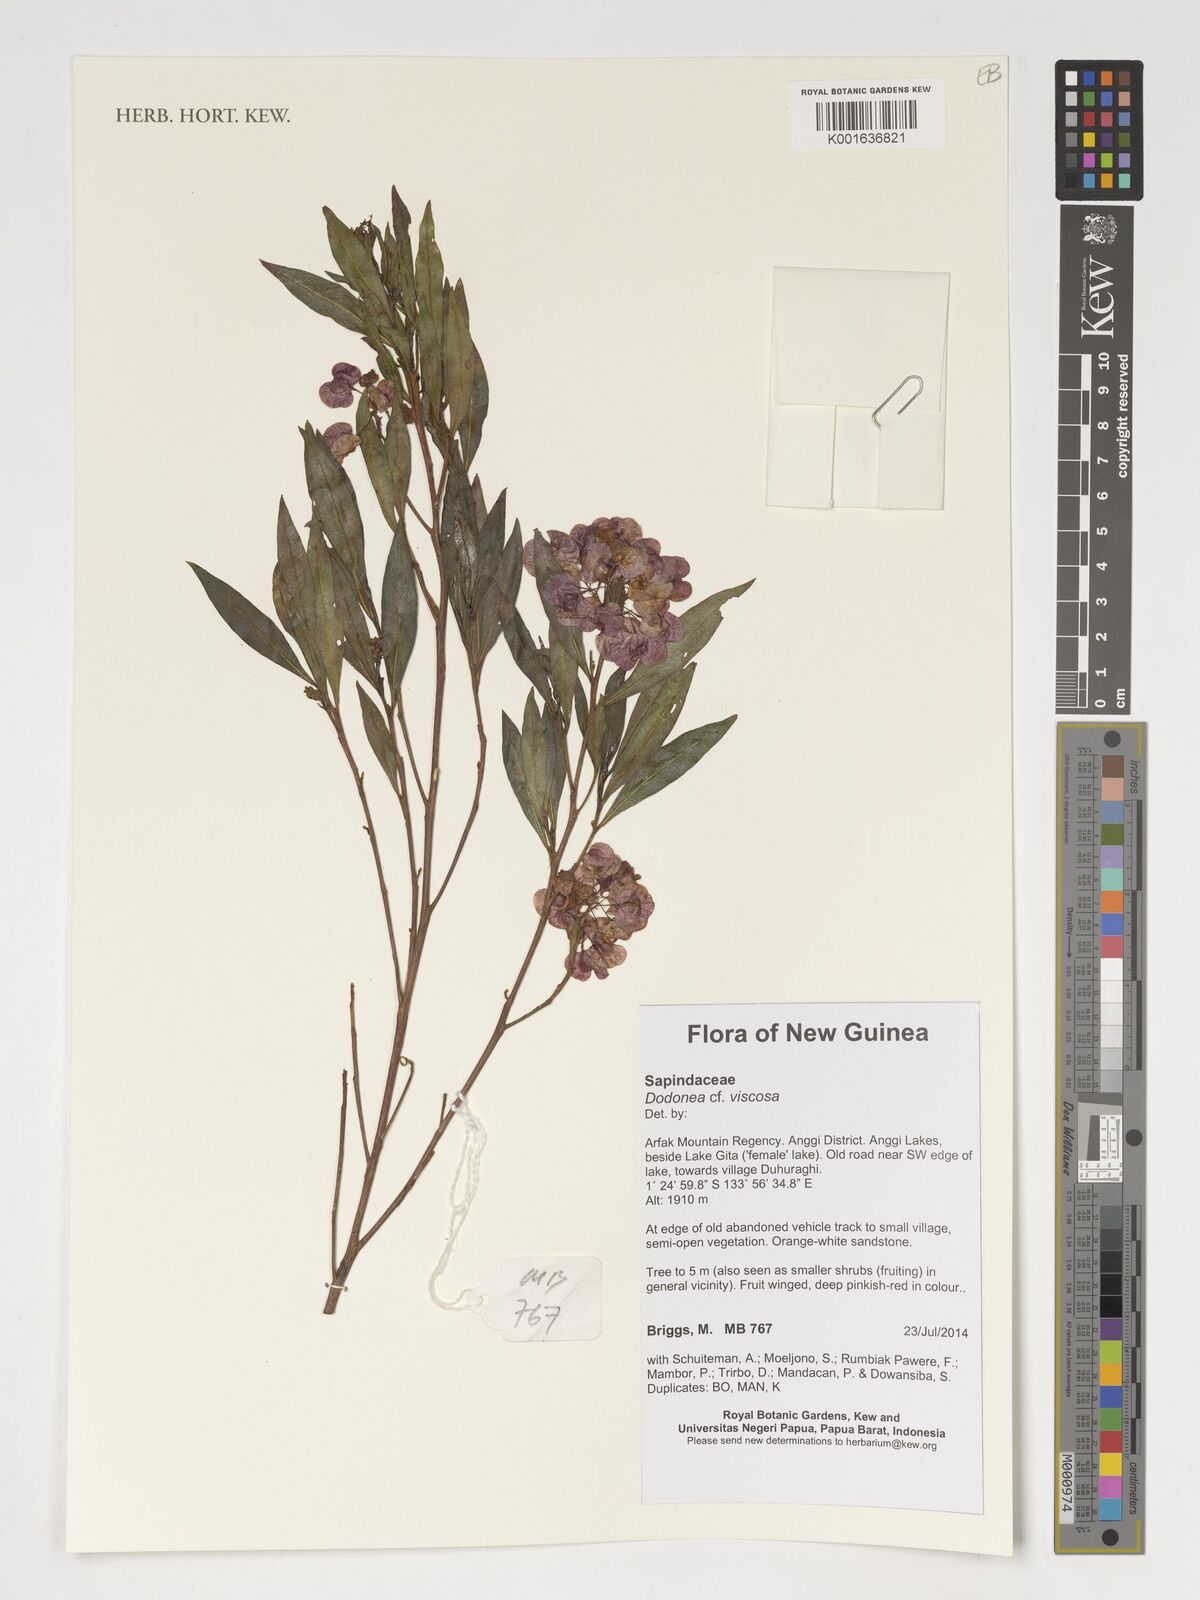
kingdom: Plantae
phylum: Tracheophyta
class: Magnoliopsida
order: Sapindales
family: Sapindaceae
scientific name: Sapindaceae
